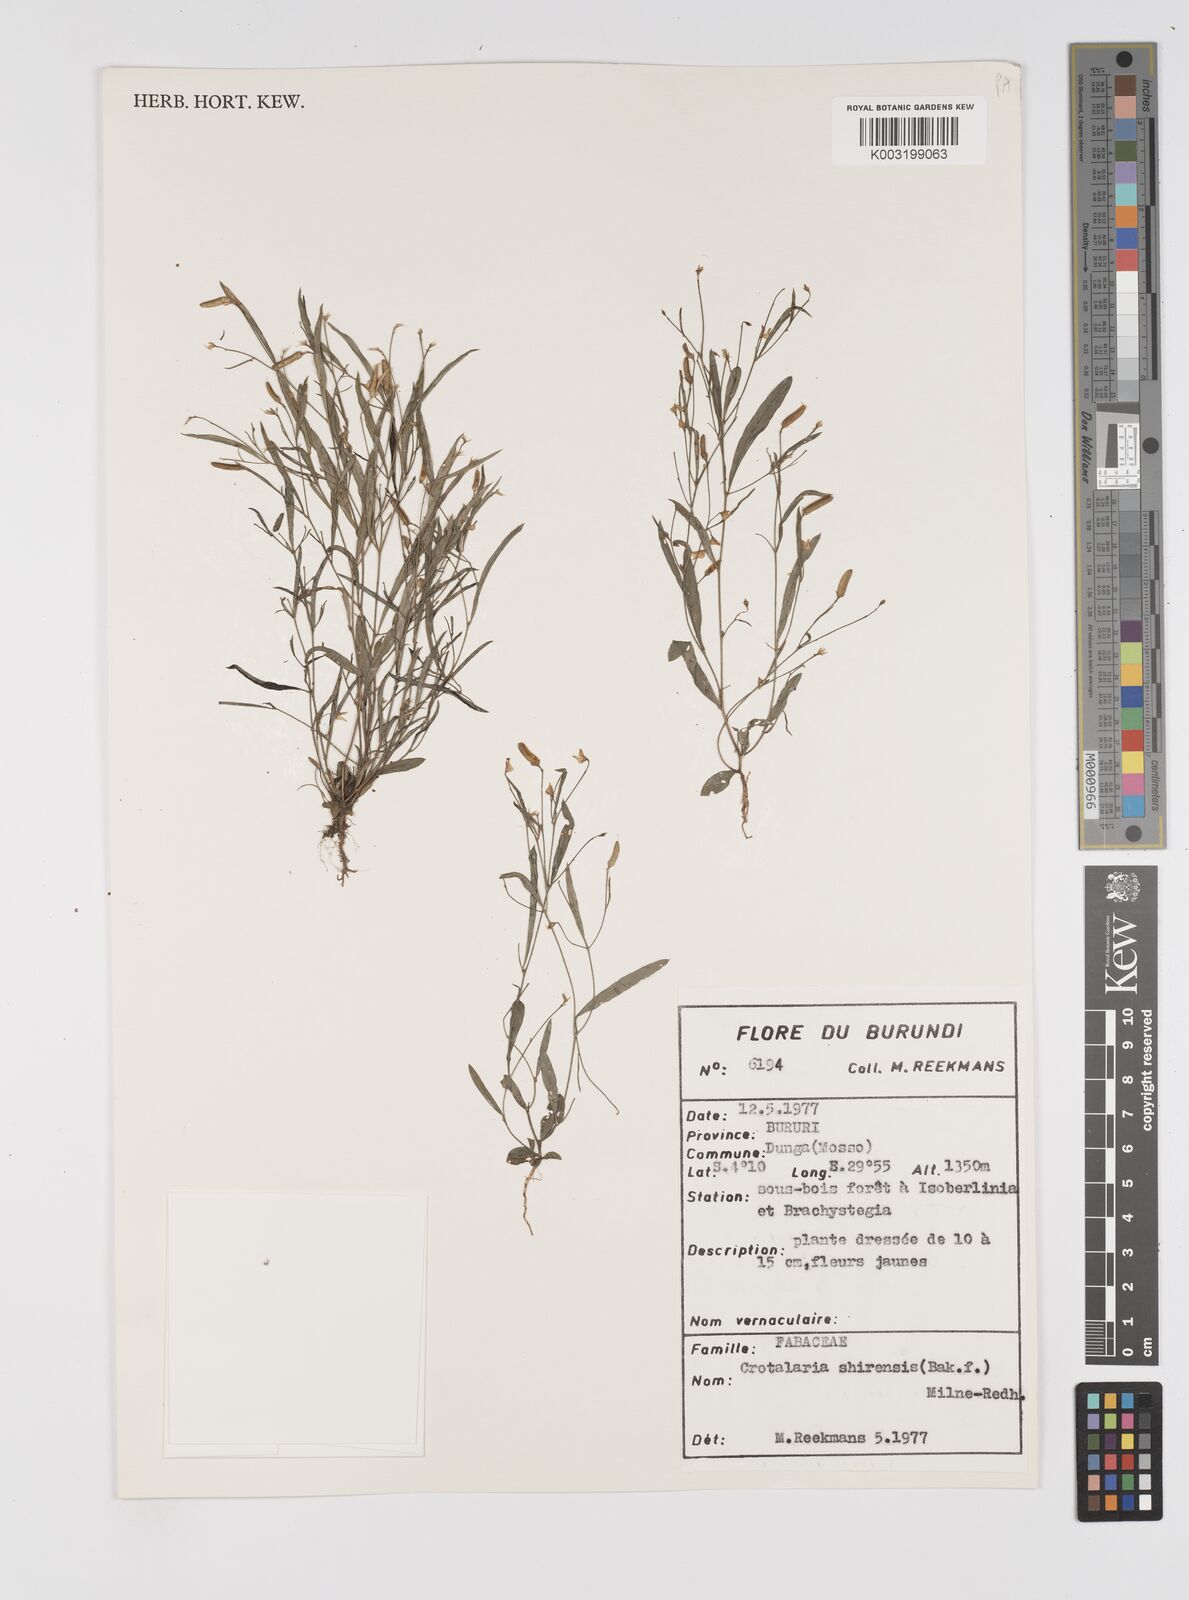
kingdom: Plantae
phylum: Tracheophyta
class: Magnoliopsida
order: Fabales
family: Fabaceae
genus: Crotalaria
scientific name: Crotalaria shirensis
